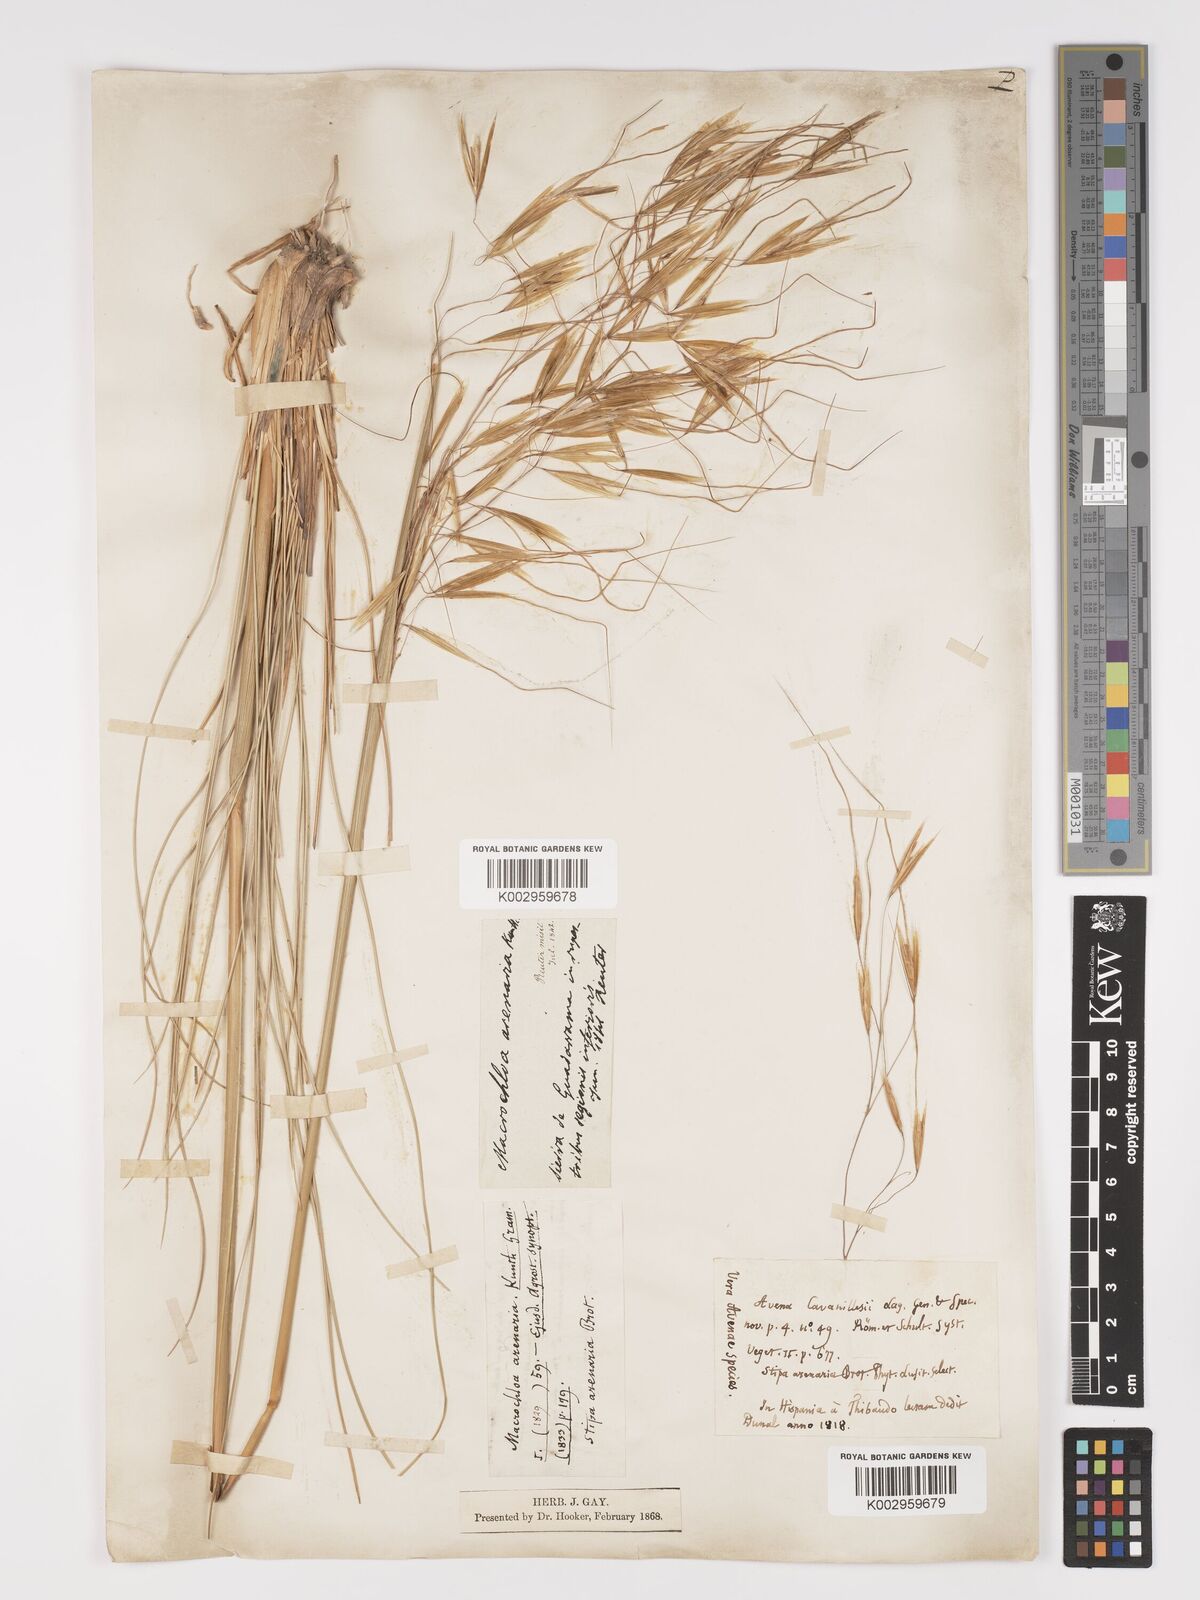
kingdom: Plantae
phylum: Tracheophyta
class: Liliopsida
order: Poales
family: Poaceae
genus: Celtica
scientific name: Celtica gigantea
